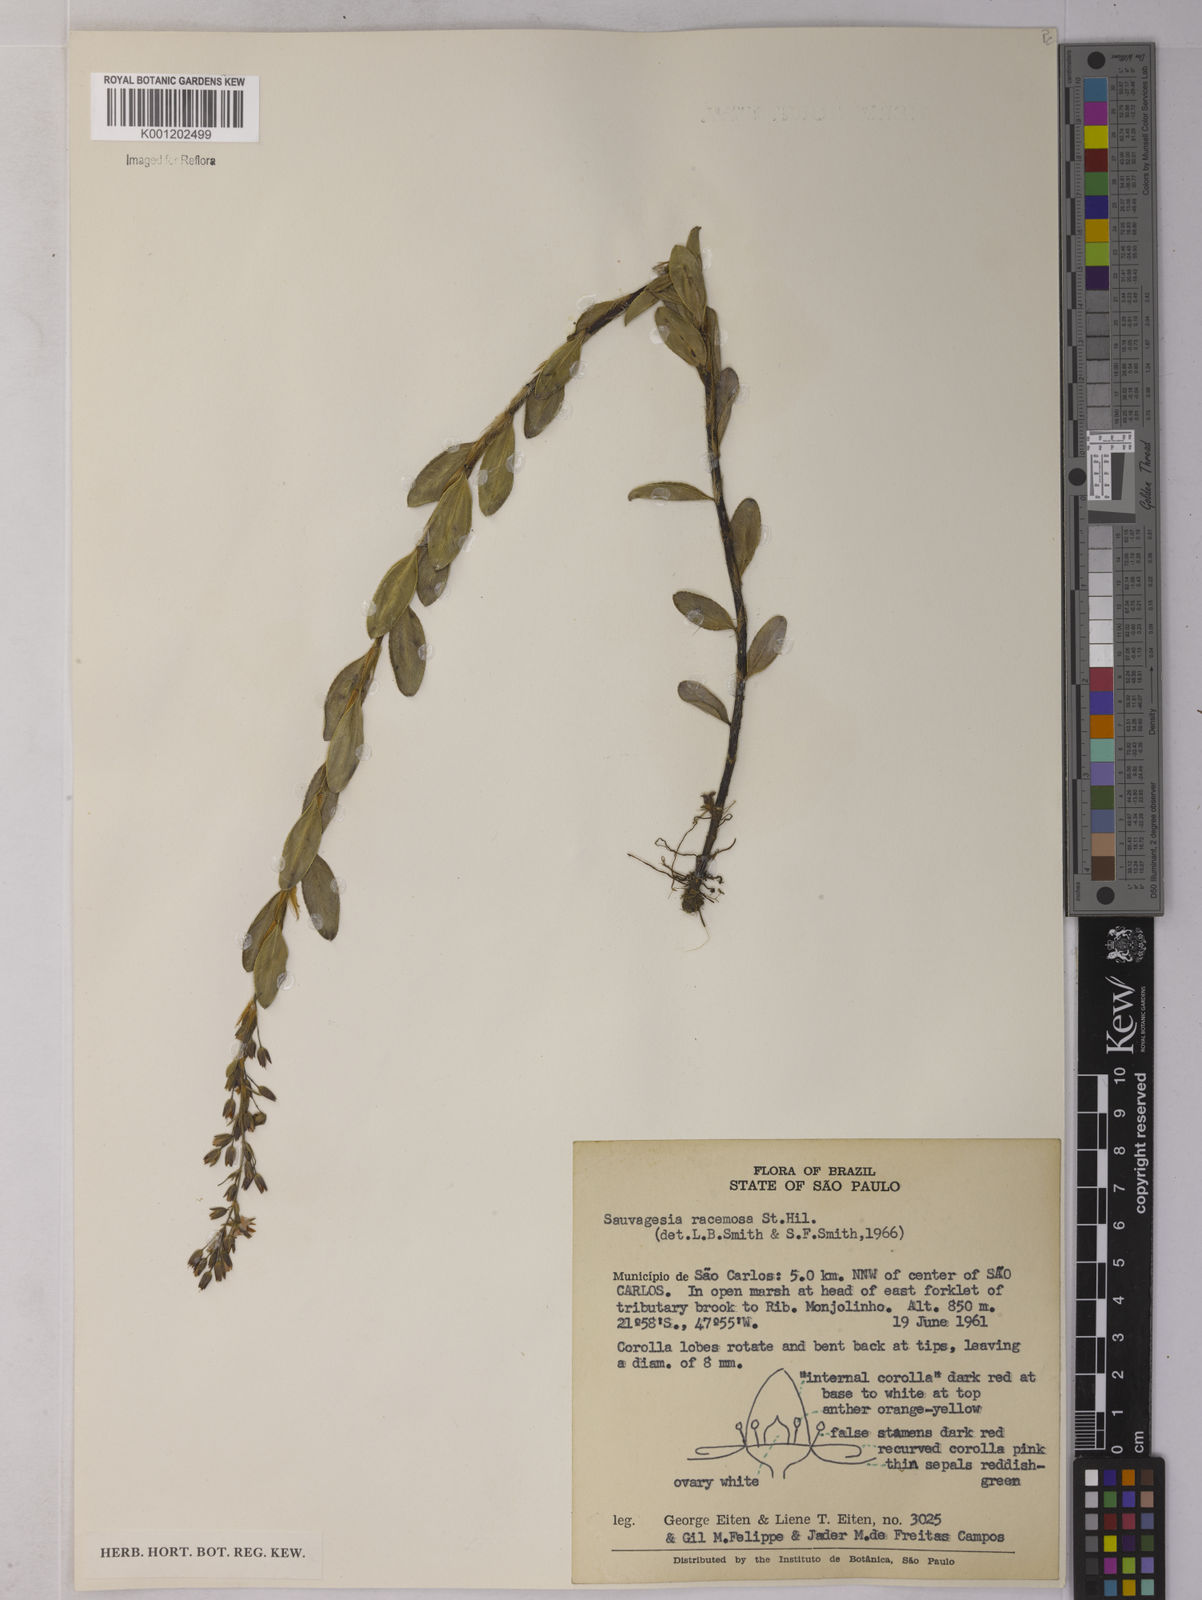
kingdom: Plantae
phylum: Tracheophyta
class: Magnoliopsida
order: Malpighiales
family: Ochnaceae
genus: Sauvagesia
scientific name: Sauvagesia racemosa
